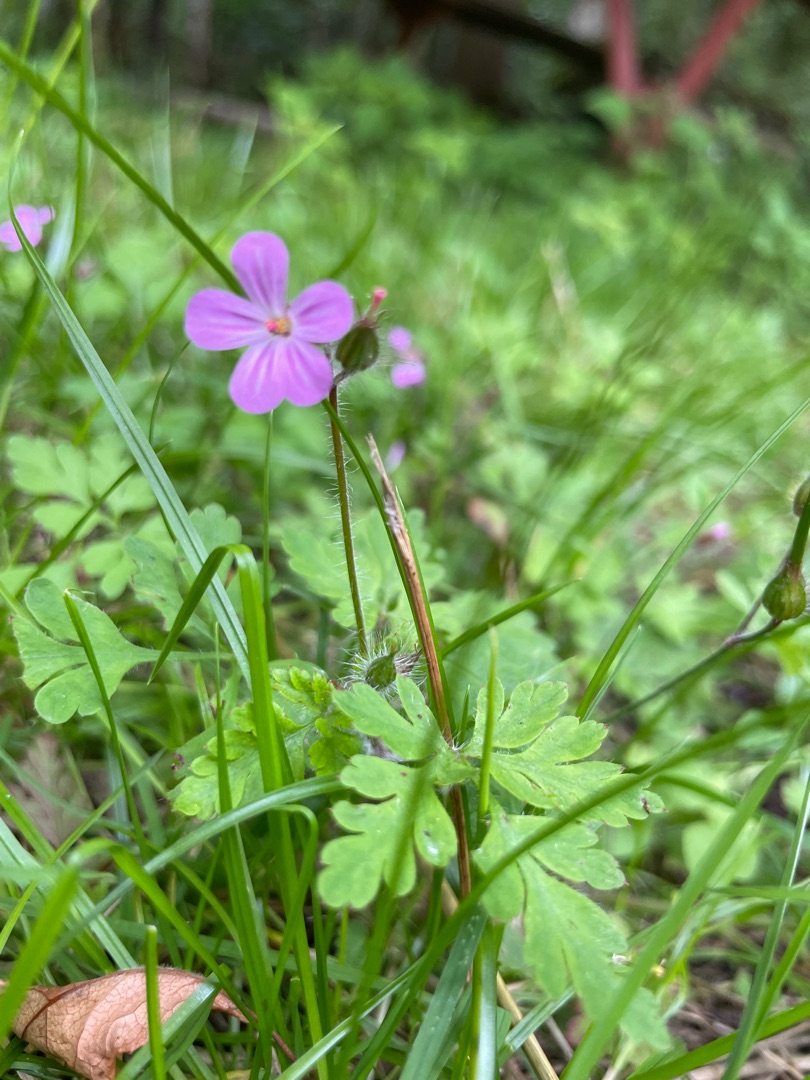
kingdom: Plantae
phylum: Tracheophyta
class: Magnoliopsida
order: Geraniales
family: Geraniaceae
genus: Geranium
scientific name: Geranium robertianum
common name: Stinkende storkenæb
